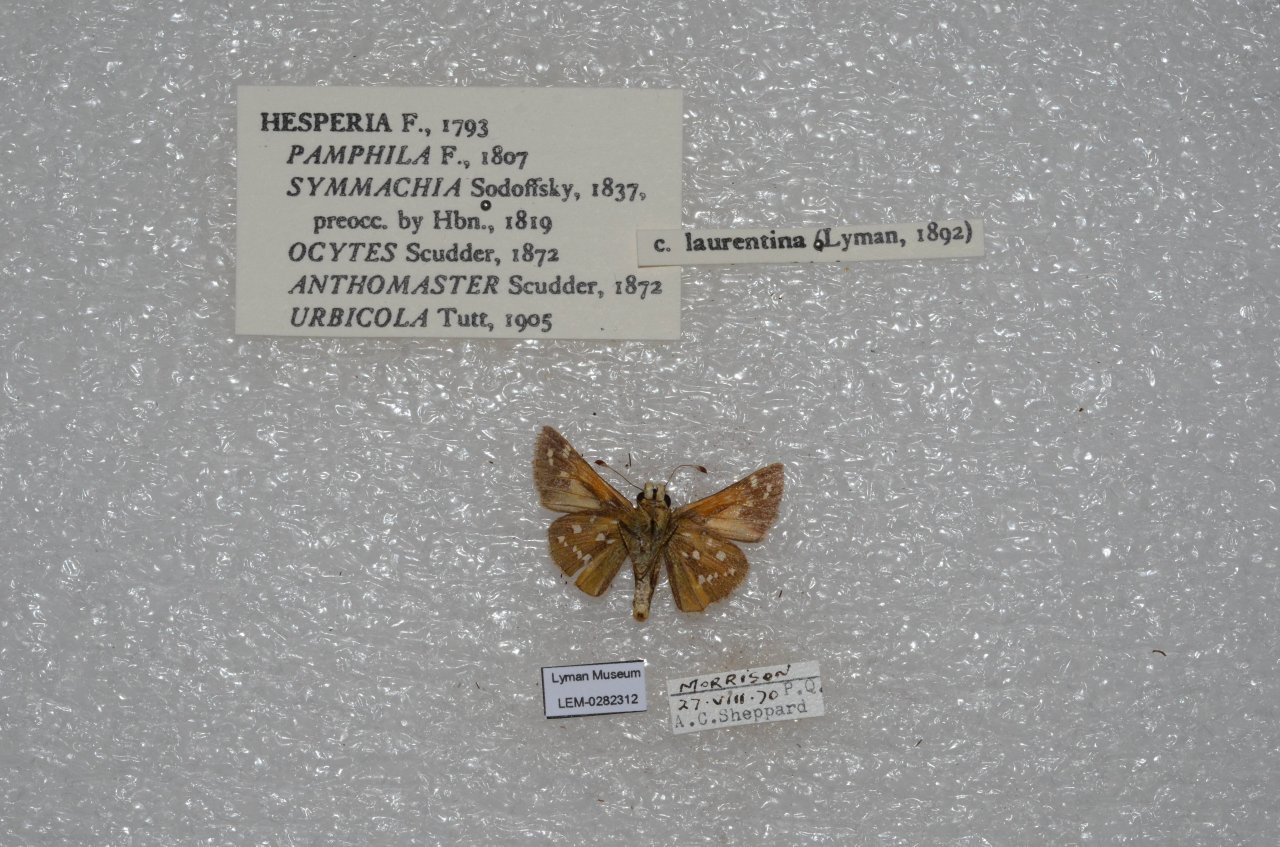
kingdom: Animalia
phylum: Arthropoda
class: Insecta
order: Lepidoptera
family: Hesperiidae
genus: Hesperia
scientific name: Hesperia comma
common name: Common Branded Skipper
